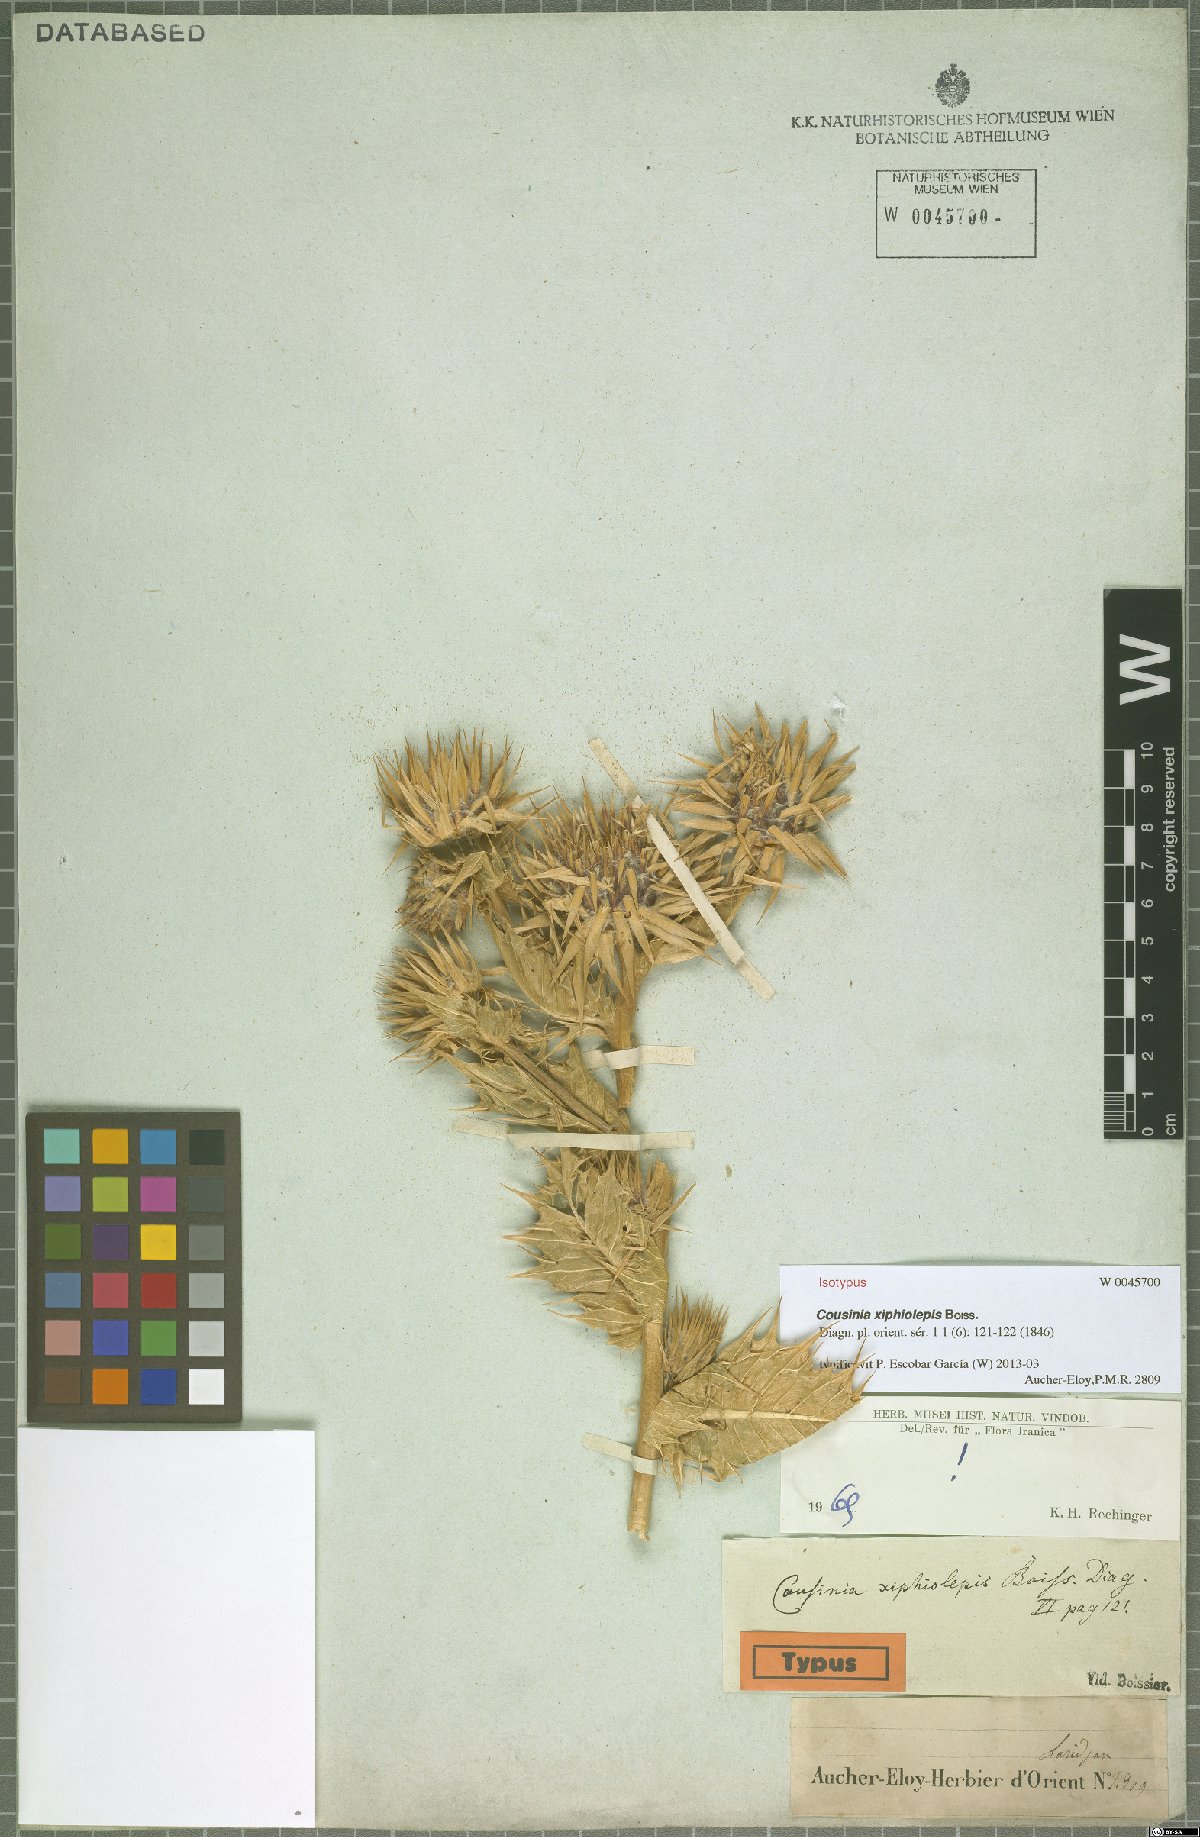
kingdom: Plantae
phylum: Tracheophyta
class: Magnoliopsida
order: Asterales
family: Asteraceae
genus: Cousinia
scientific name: Cousinia xiphiolepis
